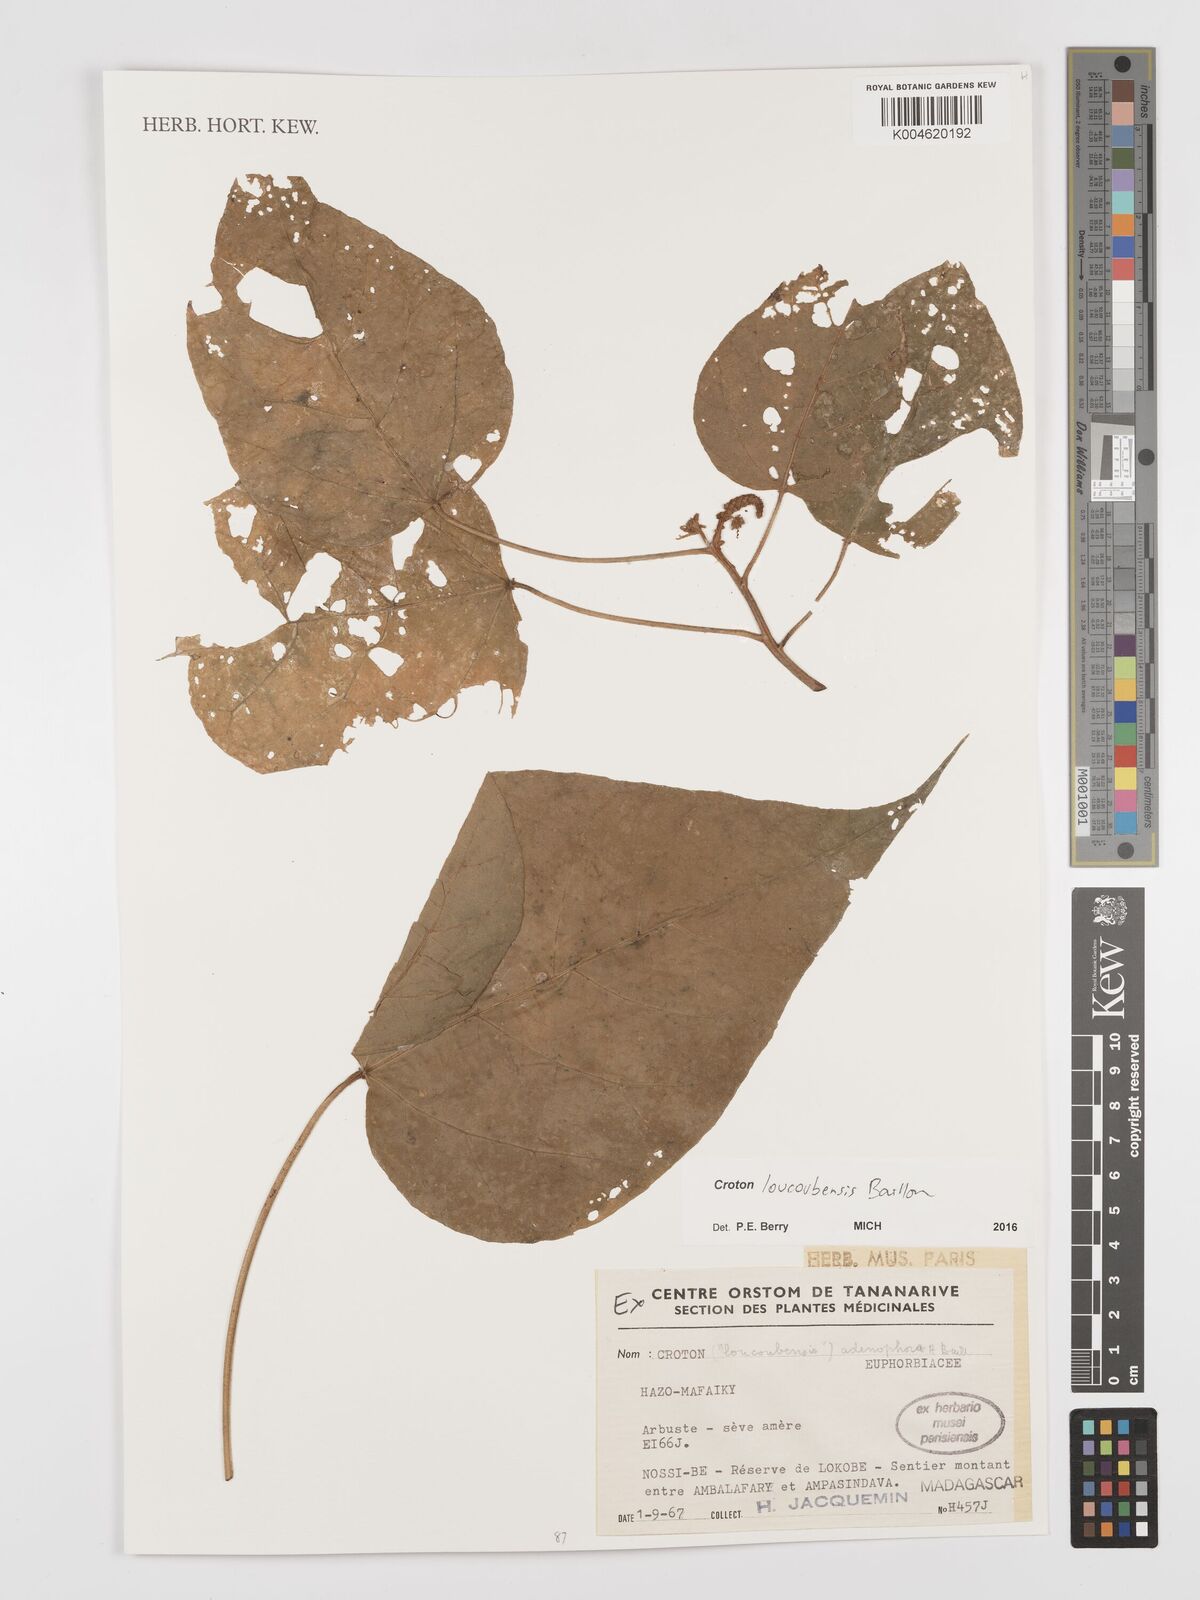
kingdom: Plantae
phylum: Tracheophyta
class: Magnoliopsida
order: Malpighiales
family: Euphorbiaceae
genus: Croton
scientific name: Croton loucoubensis
